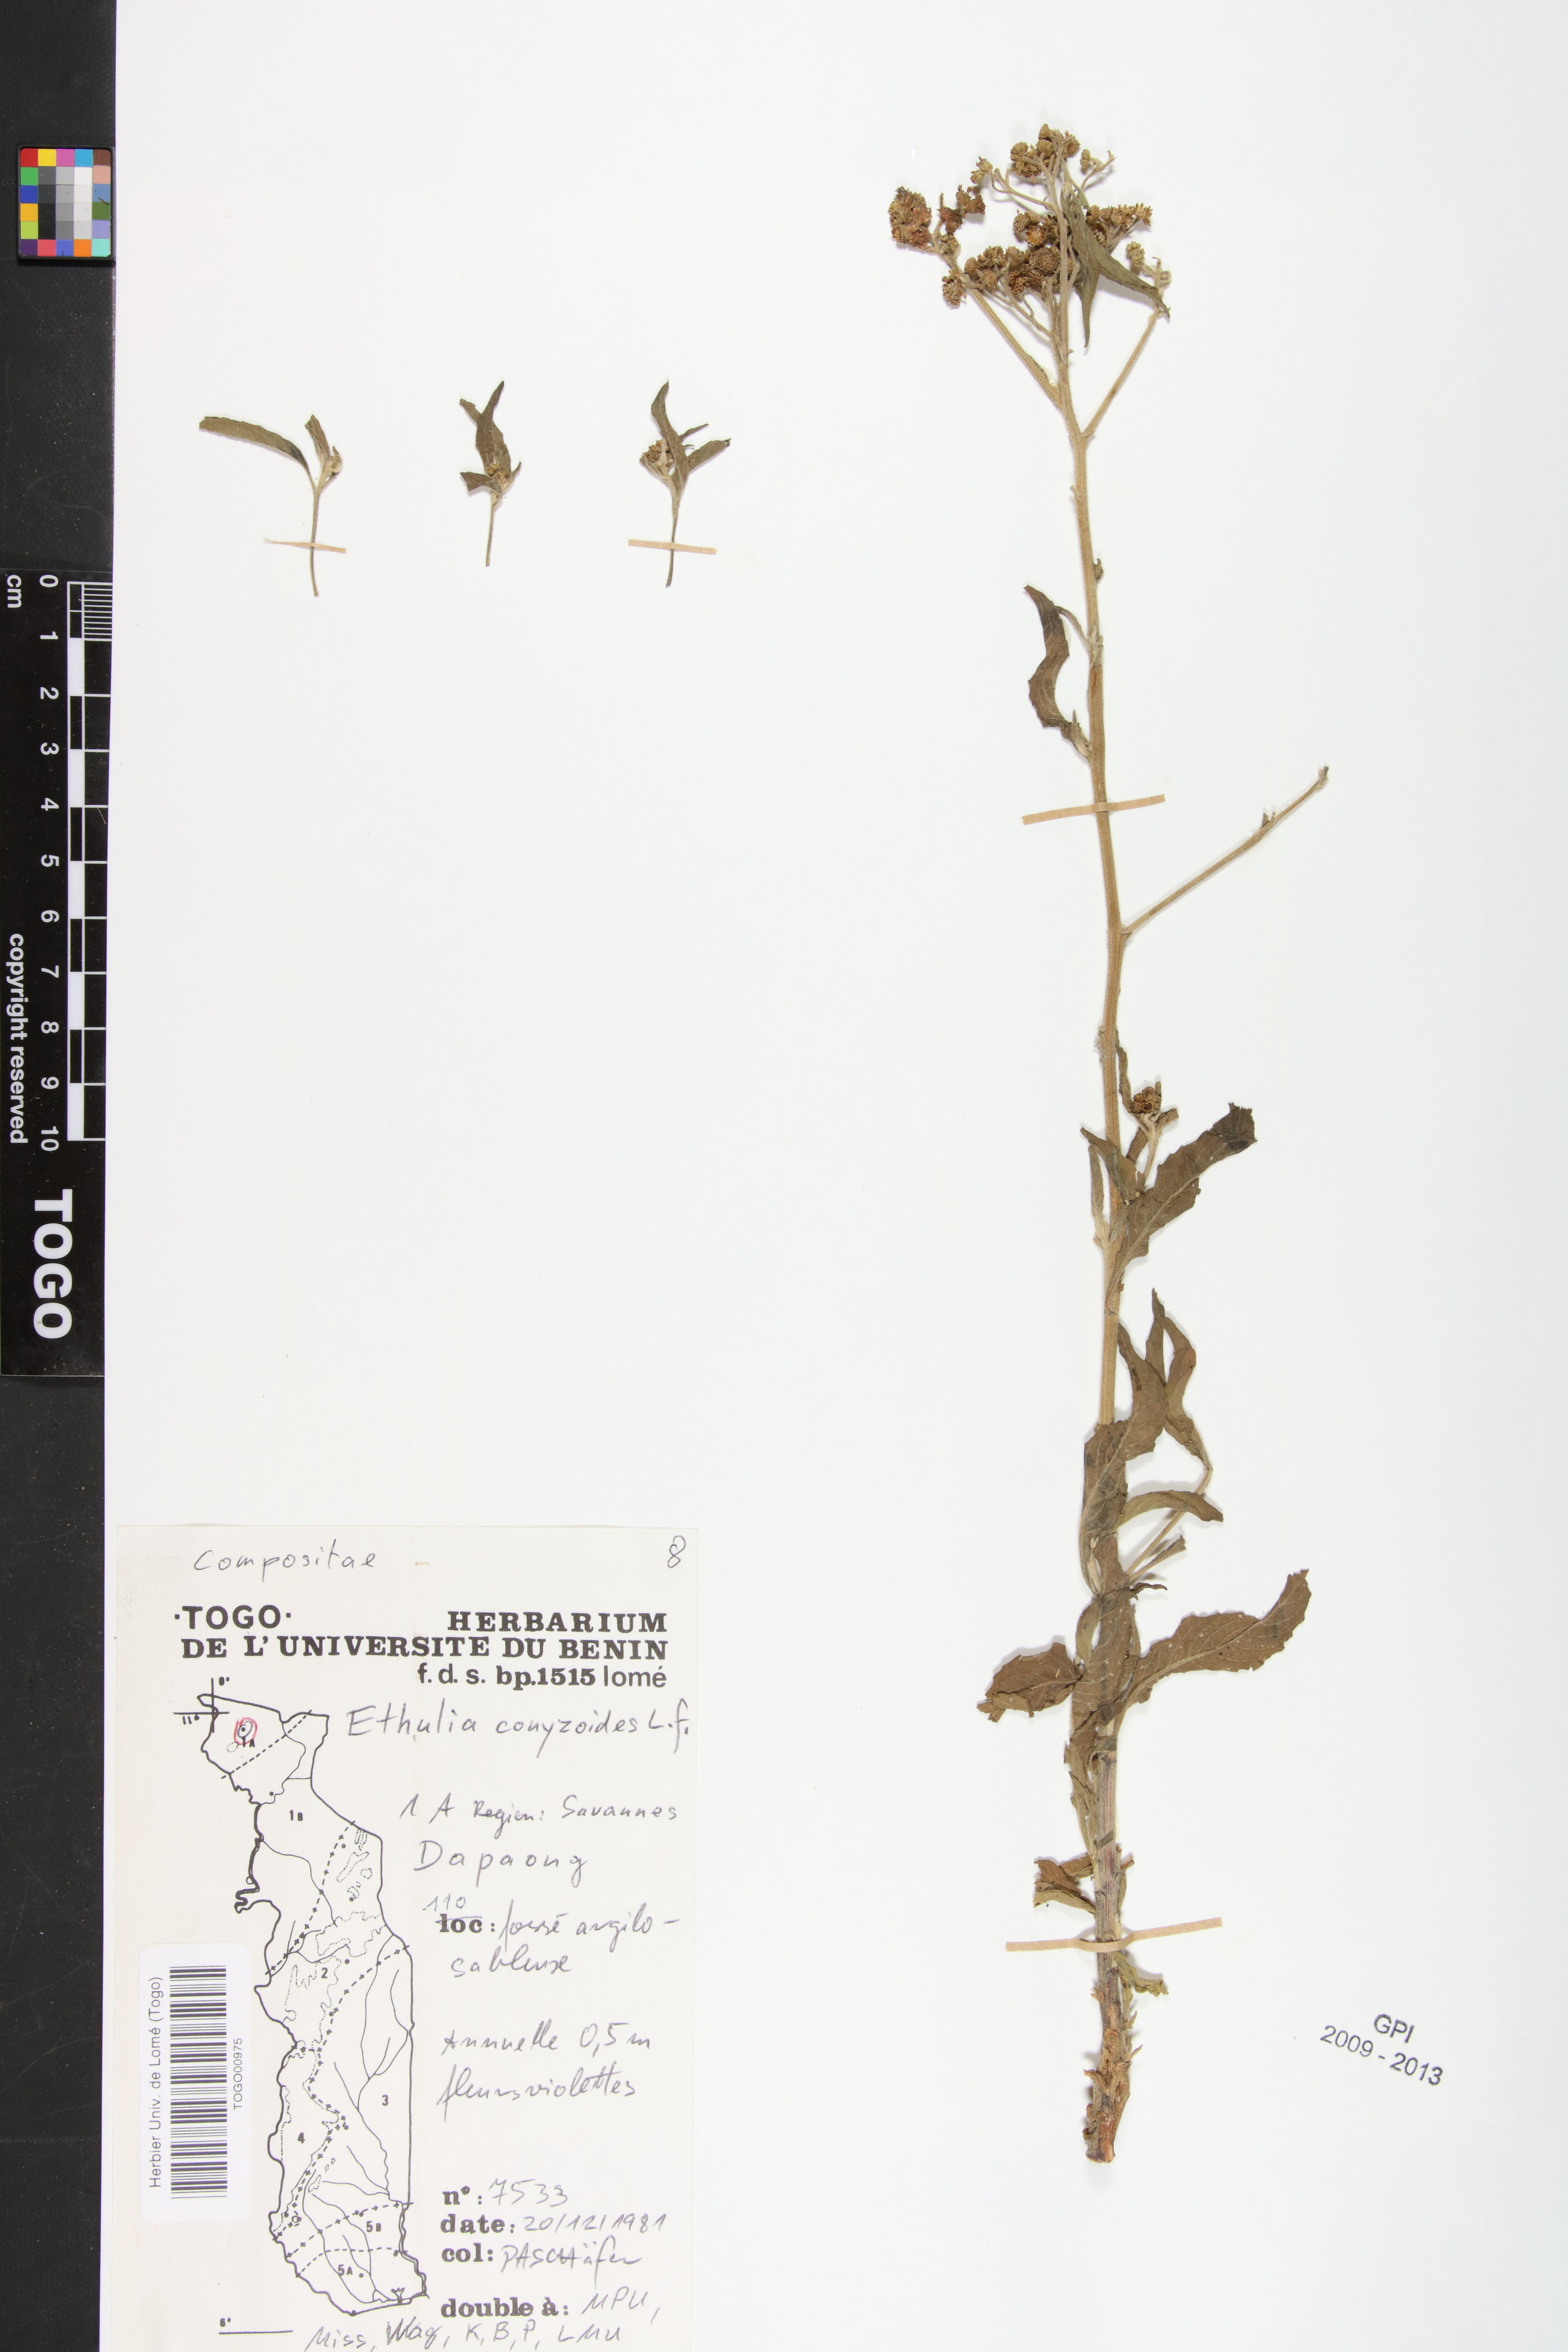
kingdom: Plantae
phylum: Tracheophyta
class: Magnoliopsida
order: Asterales
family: Asteraceae
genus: Ethulia
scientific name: Ethulia conyzoides
